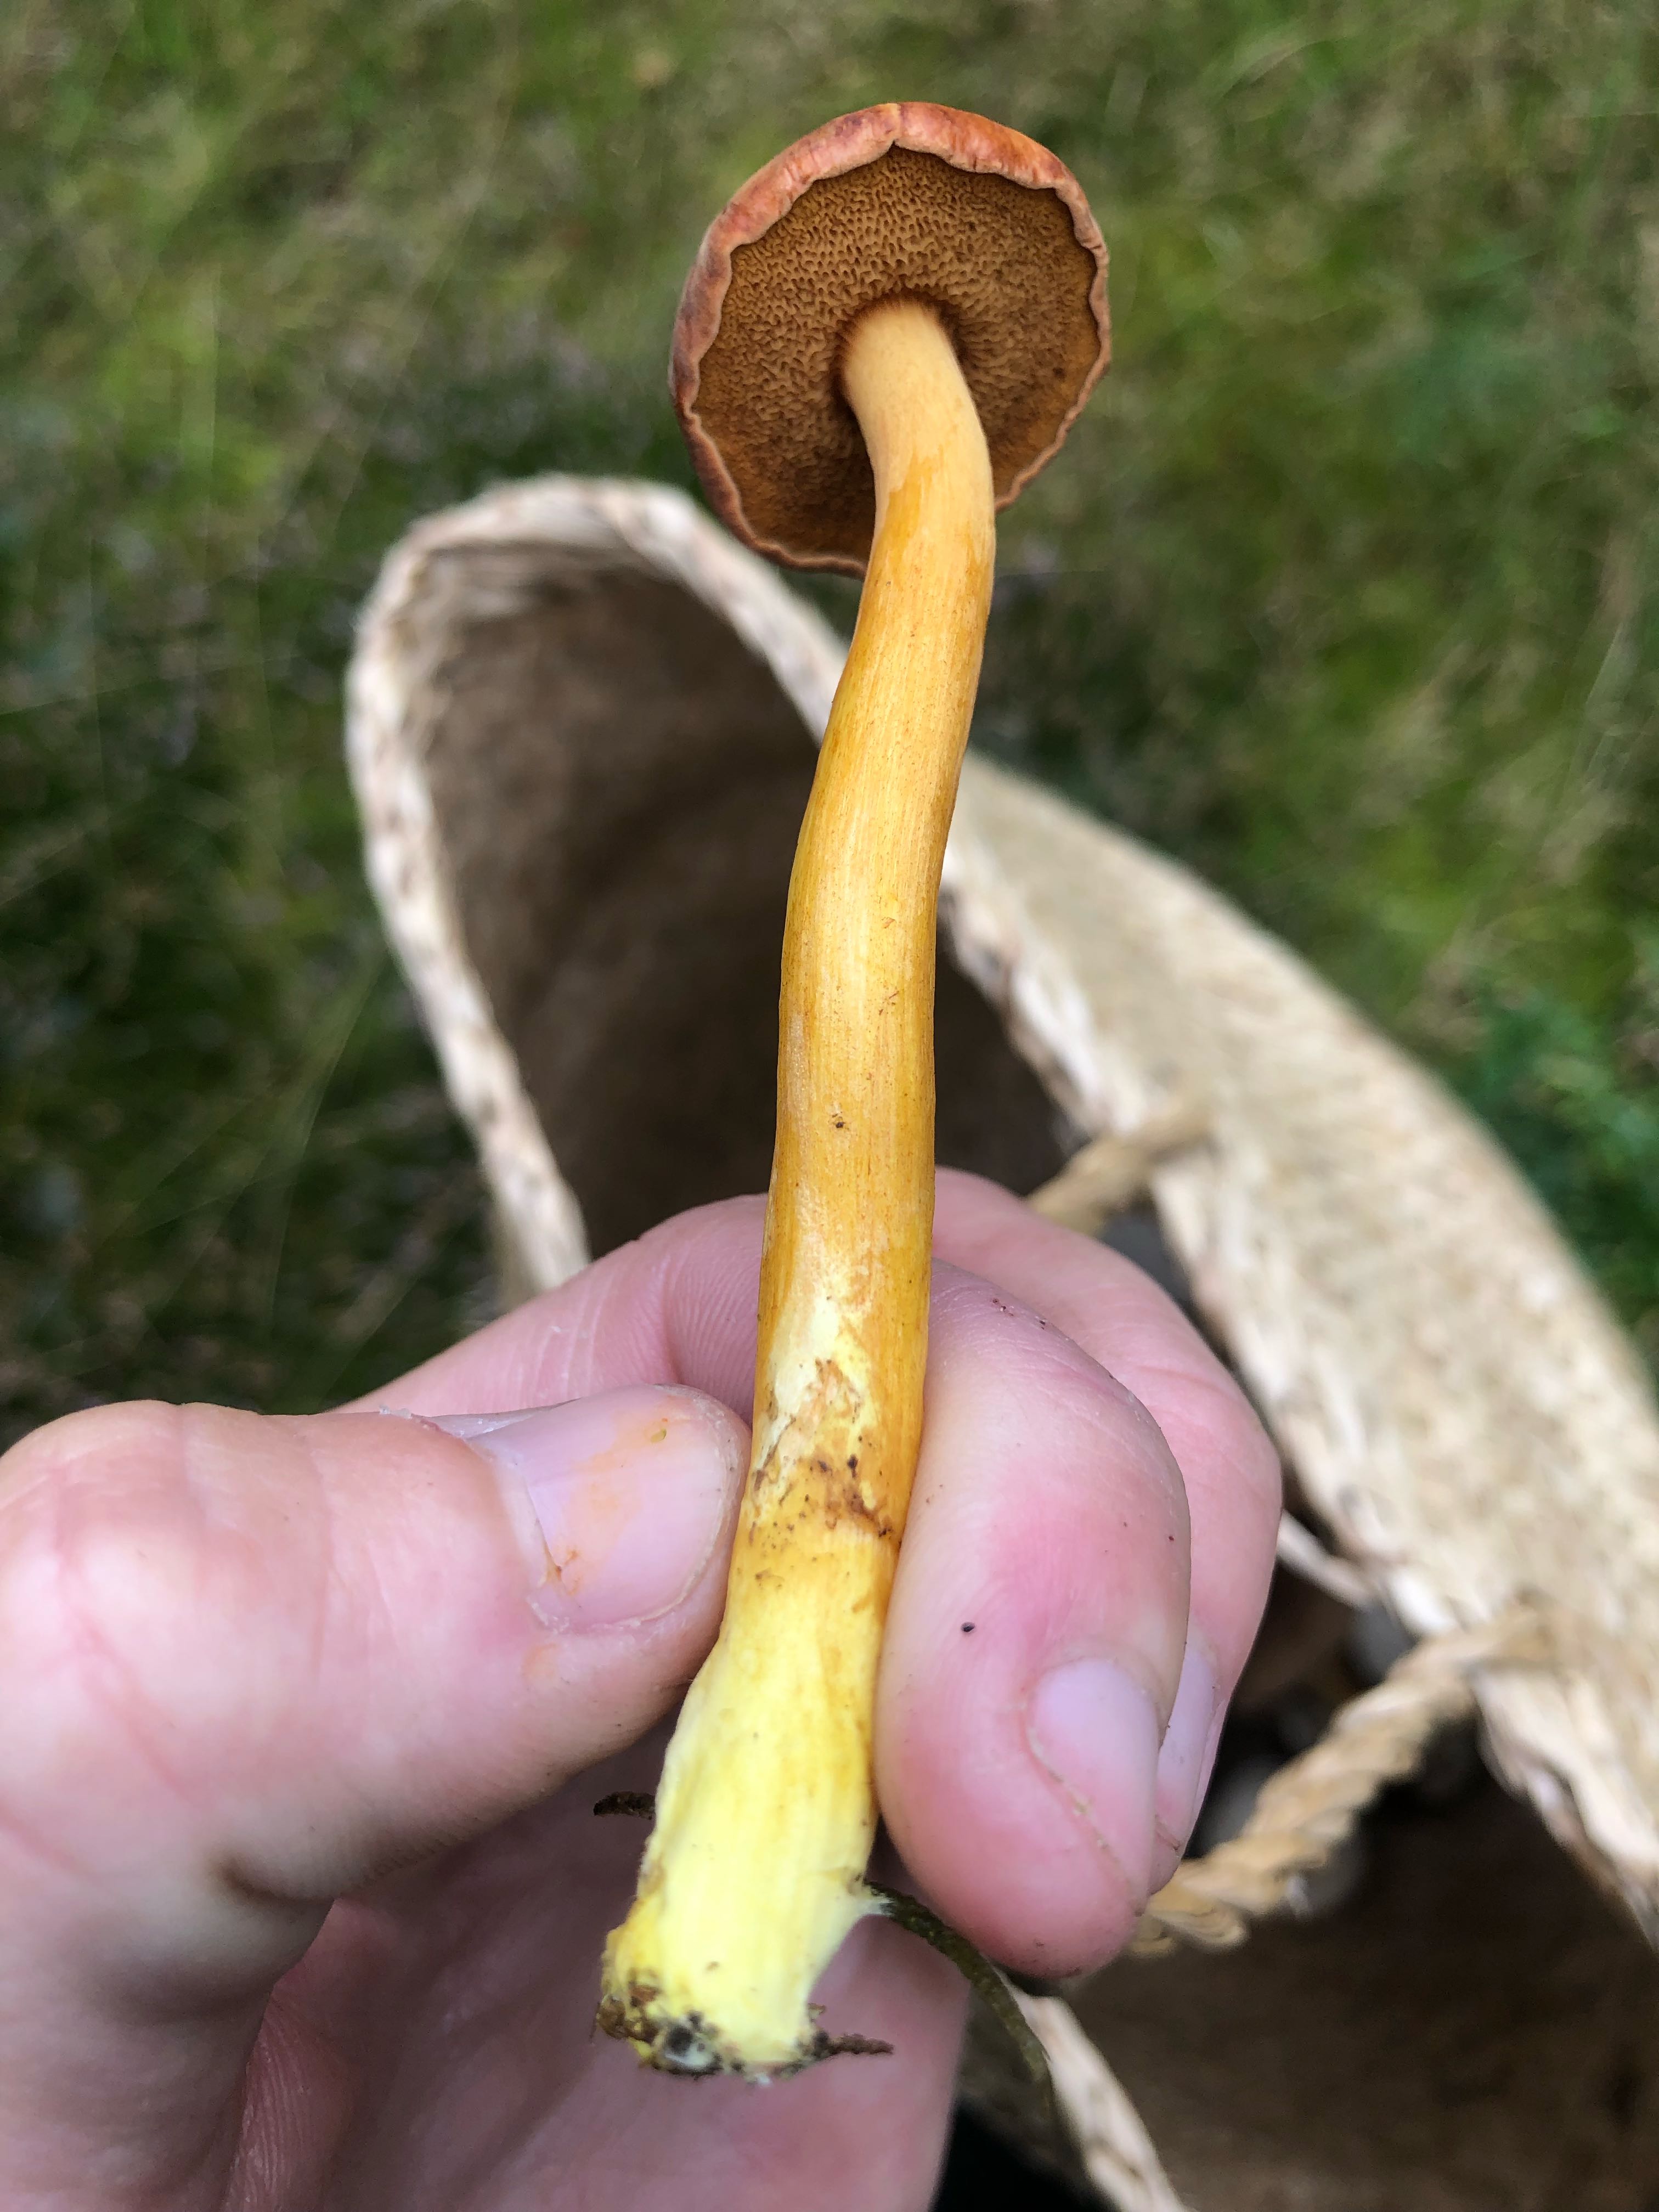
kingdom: Fungi
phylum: Basidiomycota
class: Agaricomycetes
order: Boletales
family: Boletaceae
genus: Chalciporus
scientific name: Chalciporus piperatus
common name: peberrørhat
